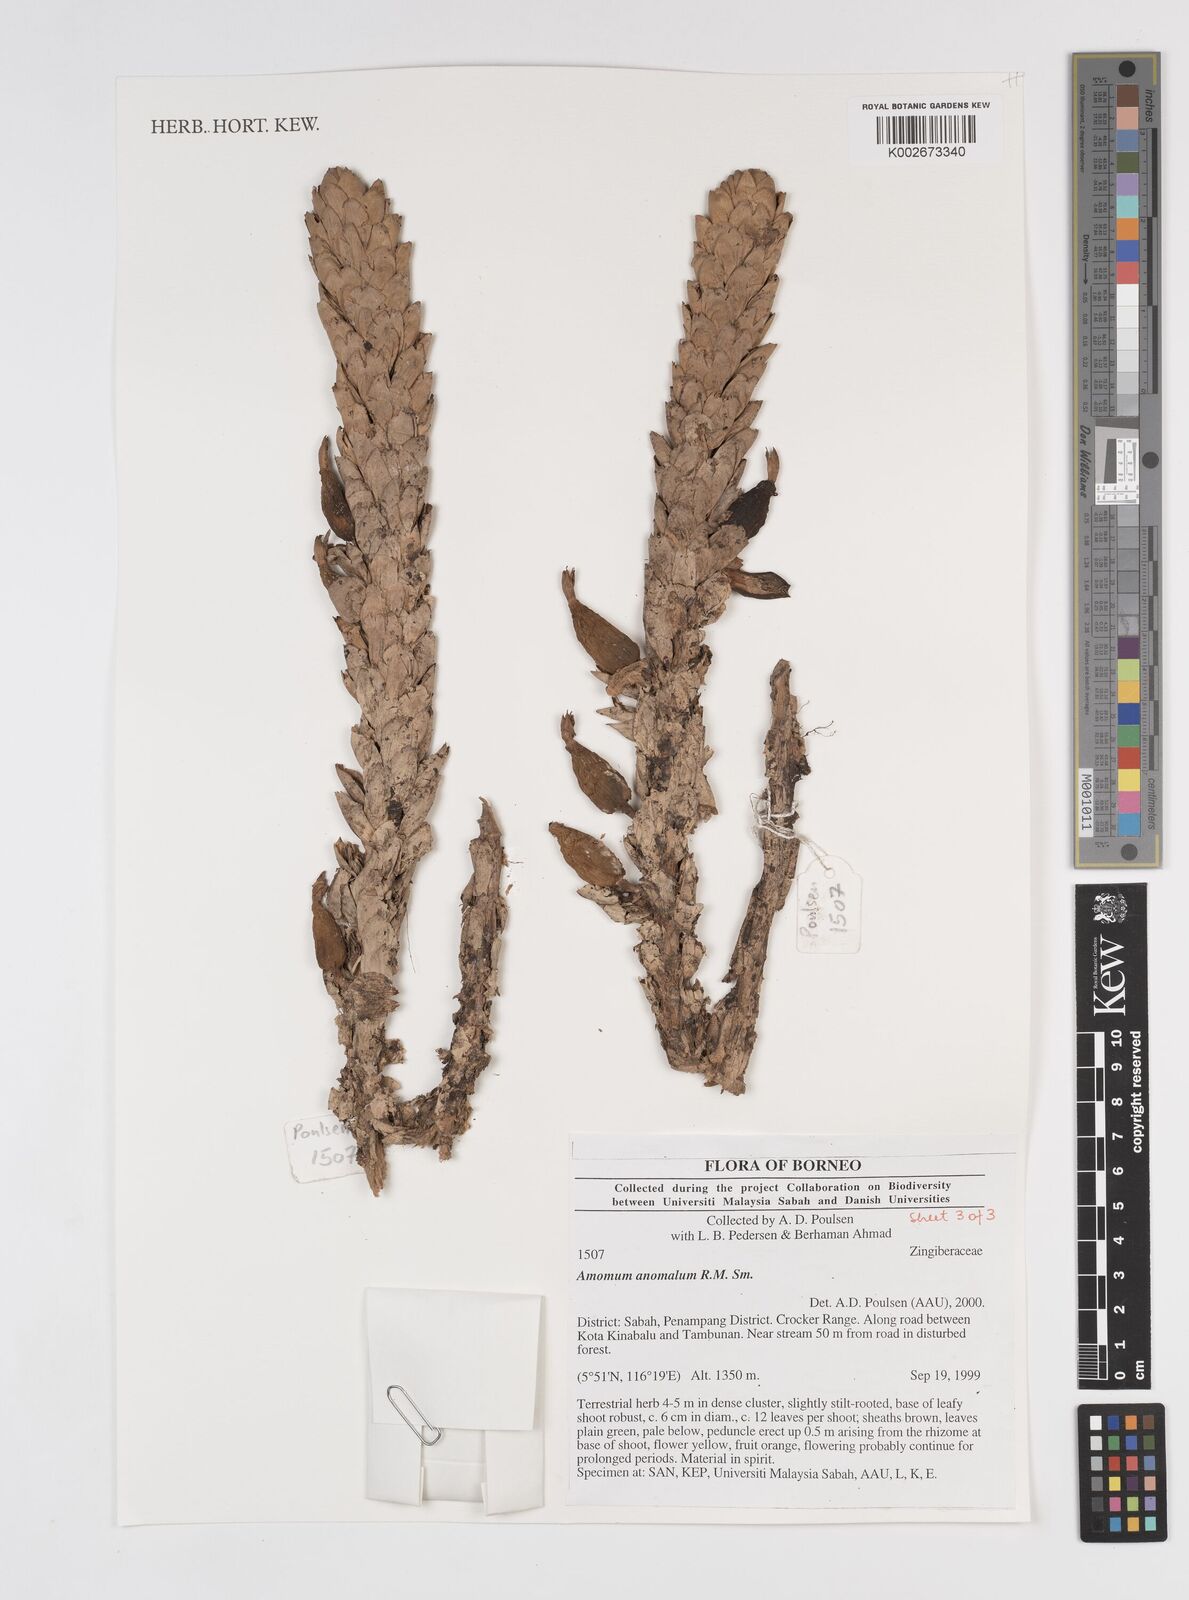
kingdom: Plantae
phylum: Tracheophyta
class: Liliopsida
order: Zingiberales
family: Zingiberaceae
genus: Sulettaria
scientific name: Sulettaria anomala
